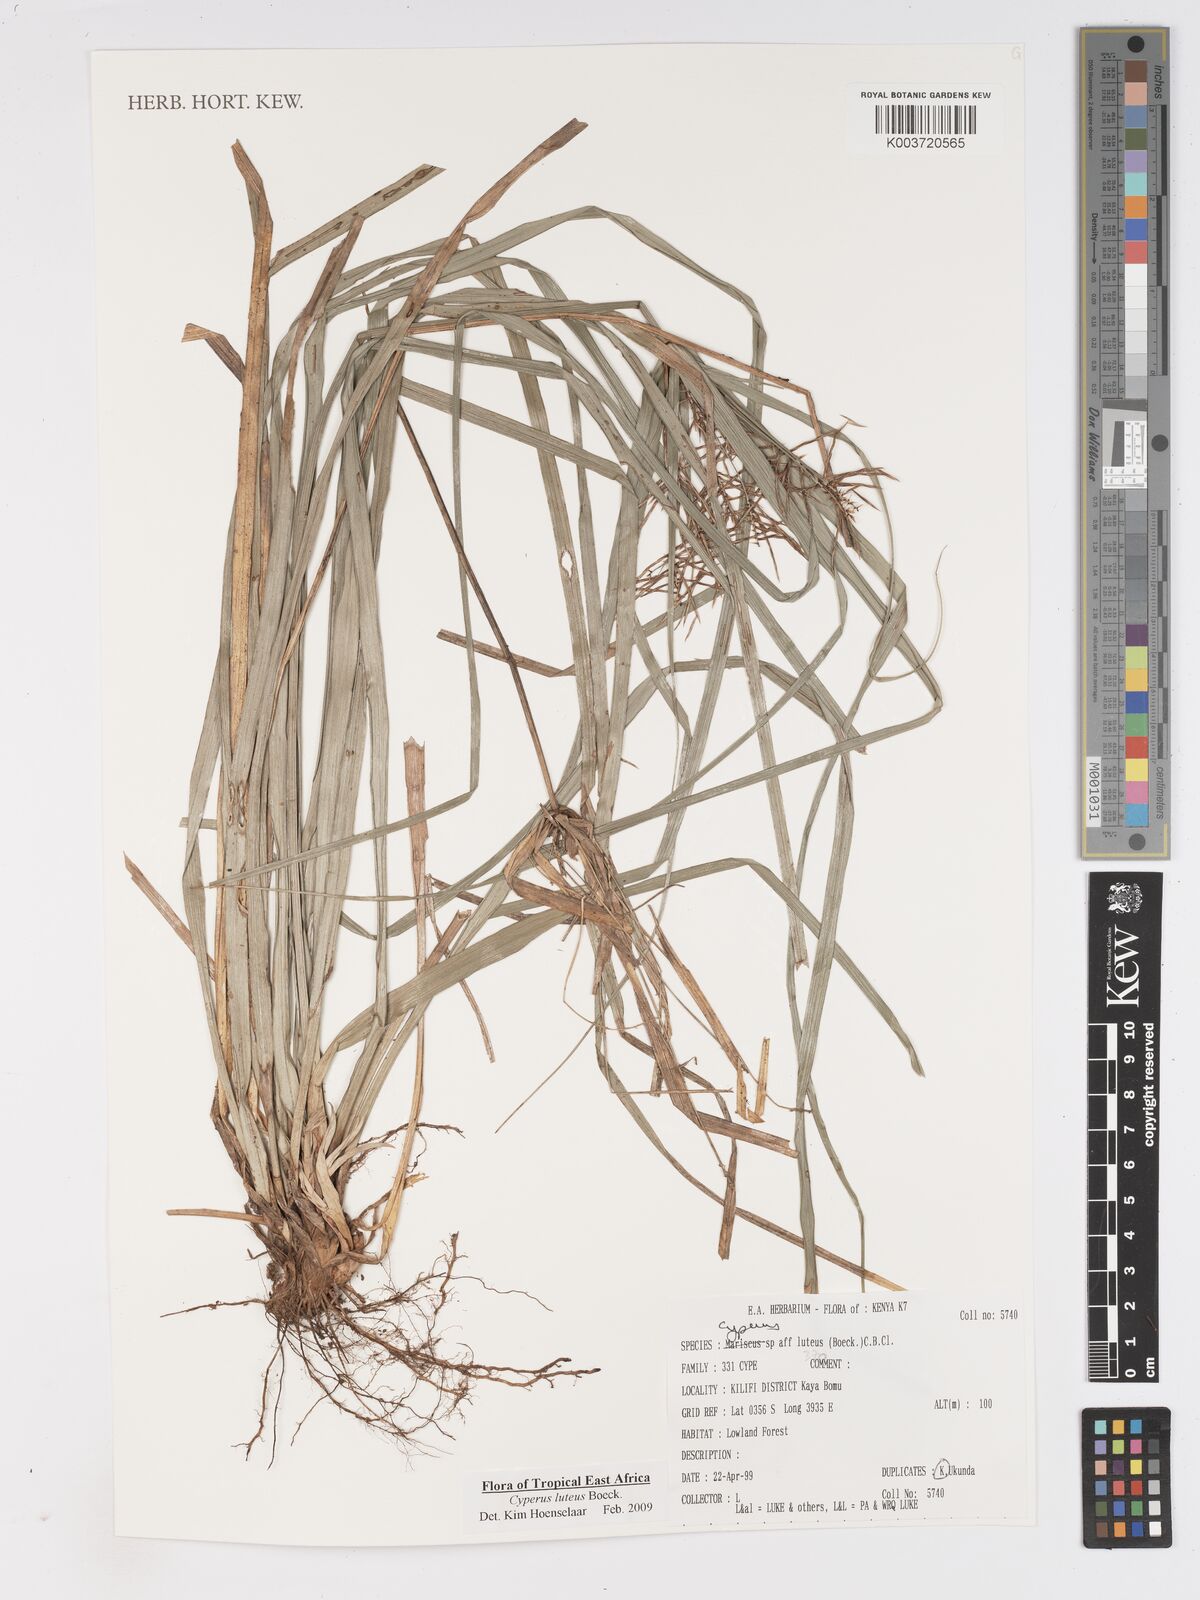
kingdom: Plantae
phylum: Tracheophyta
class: Liliopsida
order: Poales
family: Cyperaceae
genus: Cyperus
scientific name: Cyperus luteus
